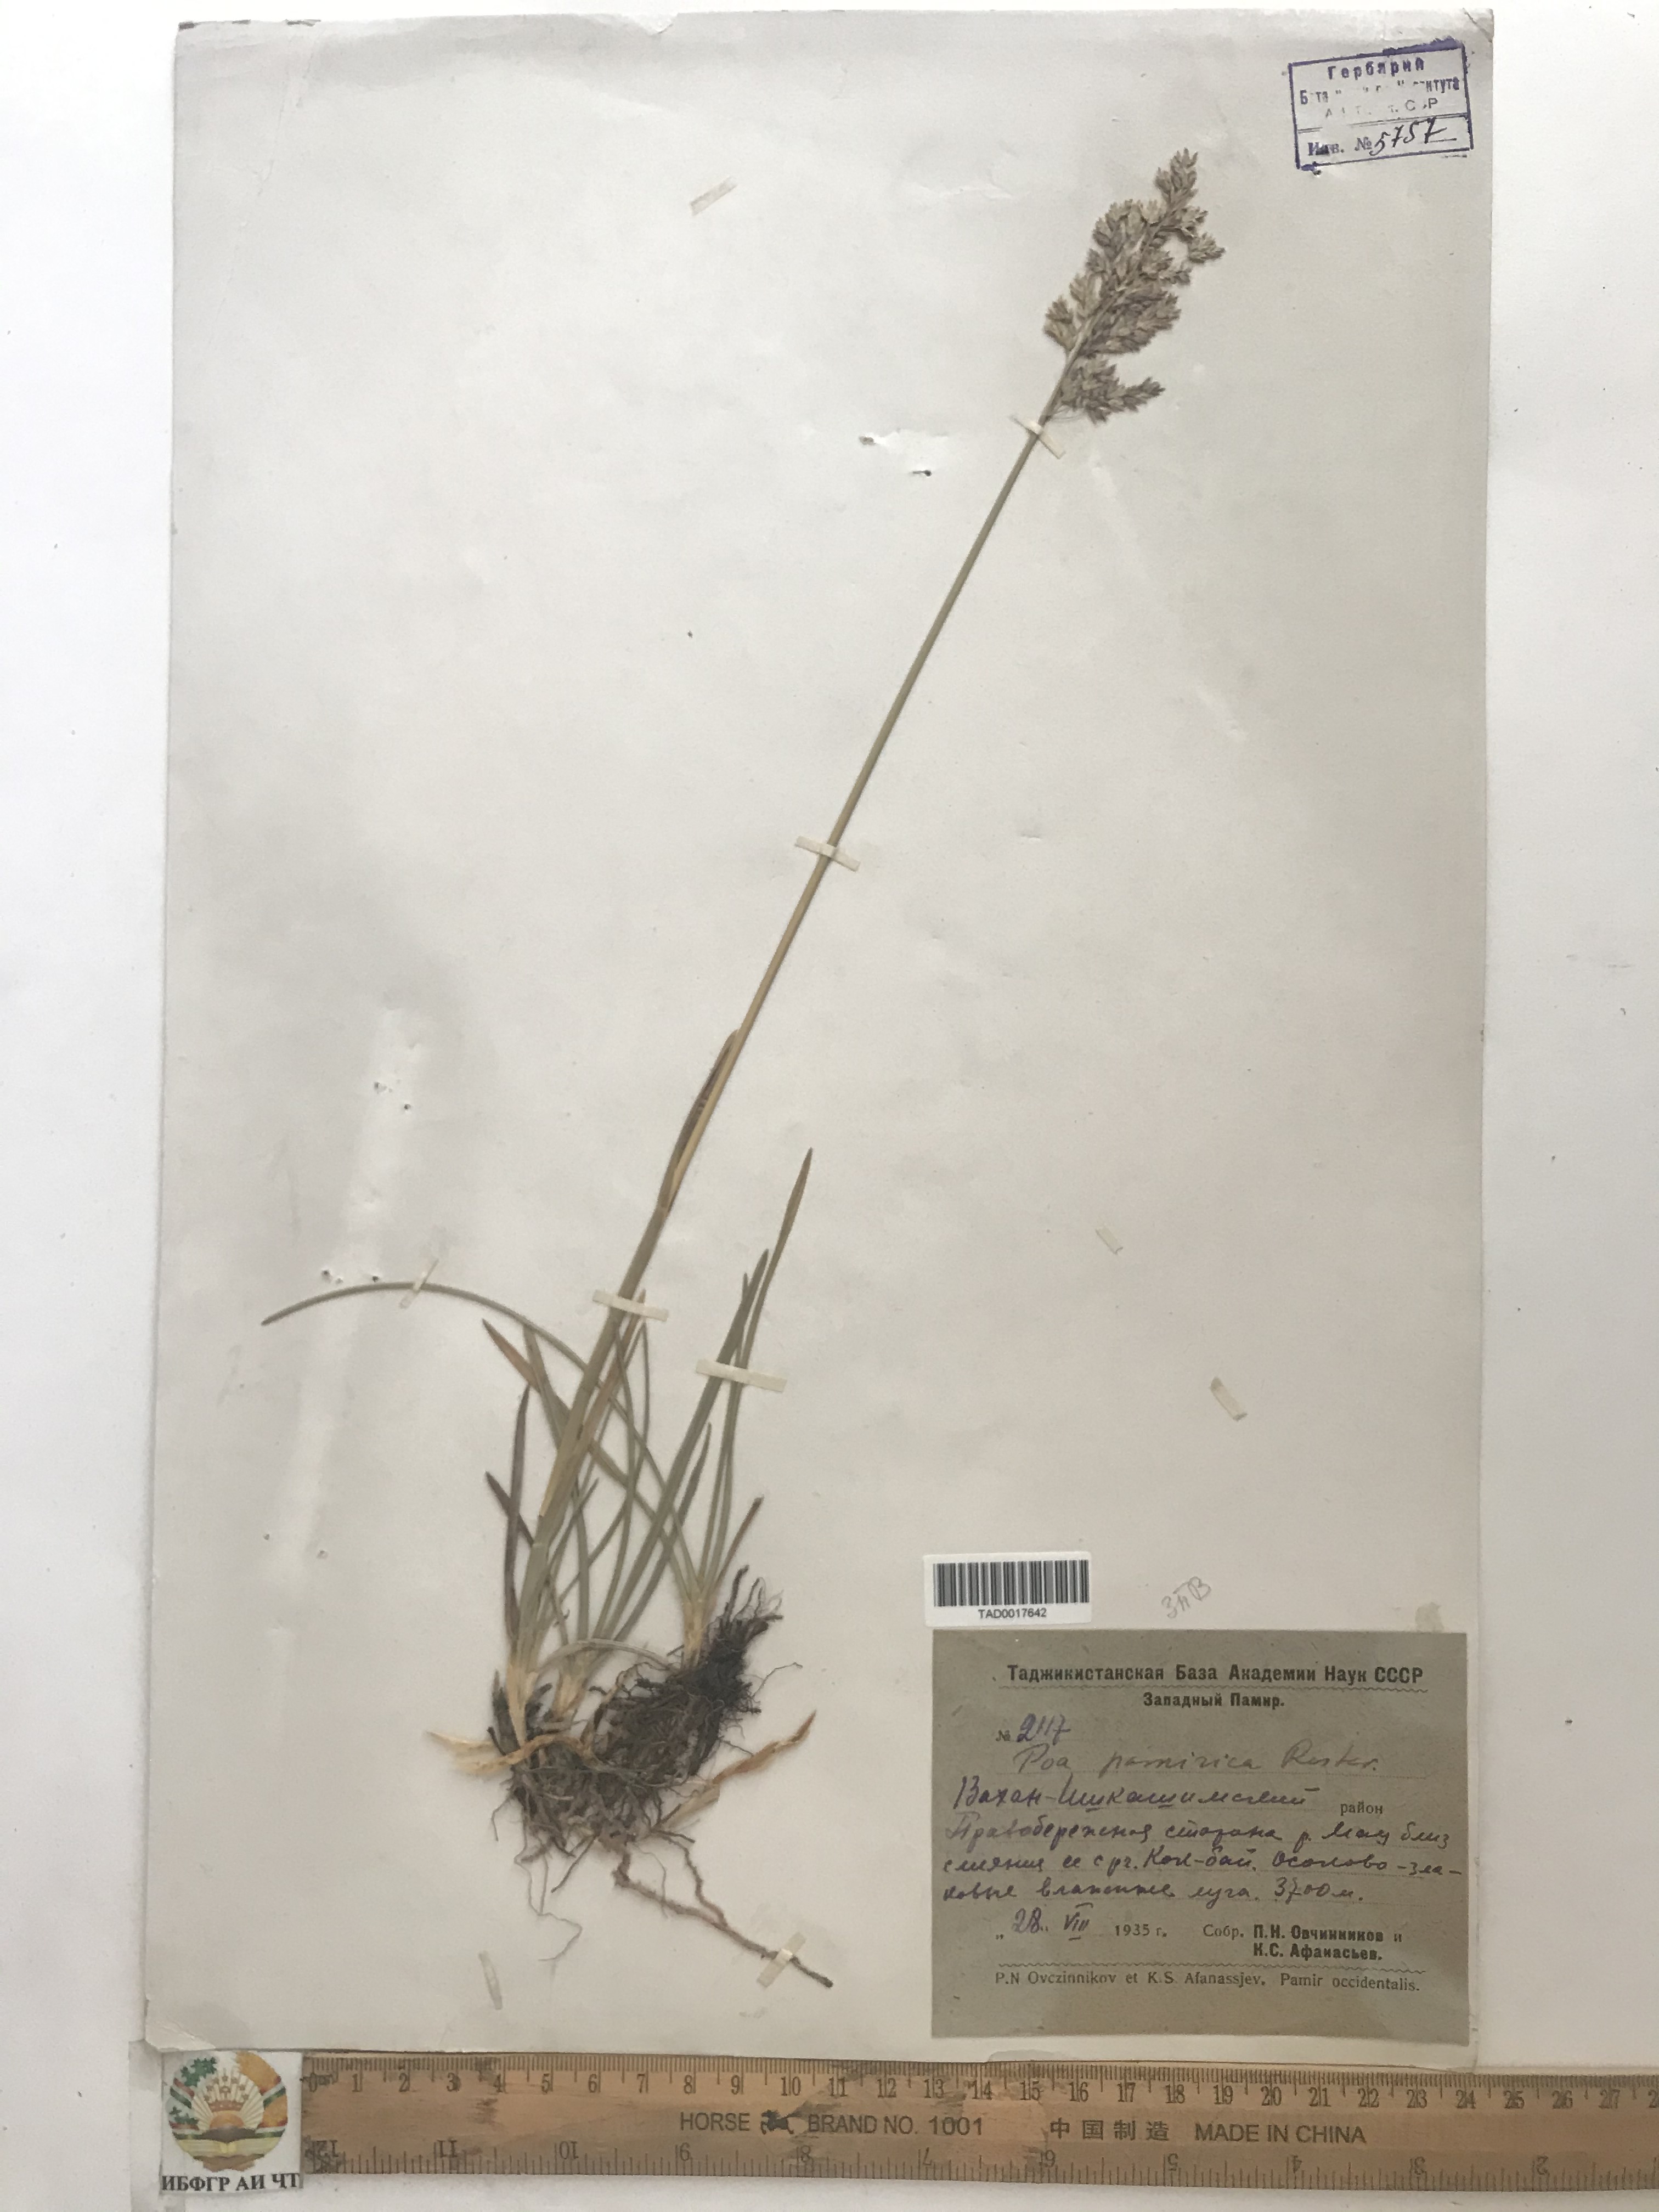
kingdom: Plantae
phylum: Tracheophyta
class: Liliopsida
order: Poales
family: Poaceae
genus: Poa
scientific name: Poa tianschanica
